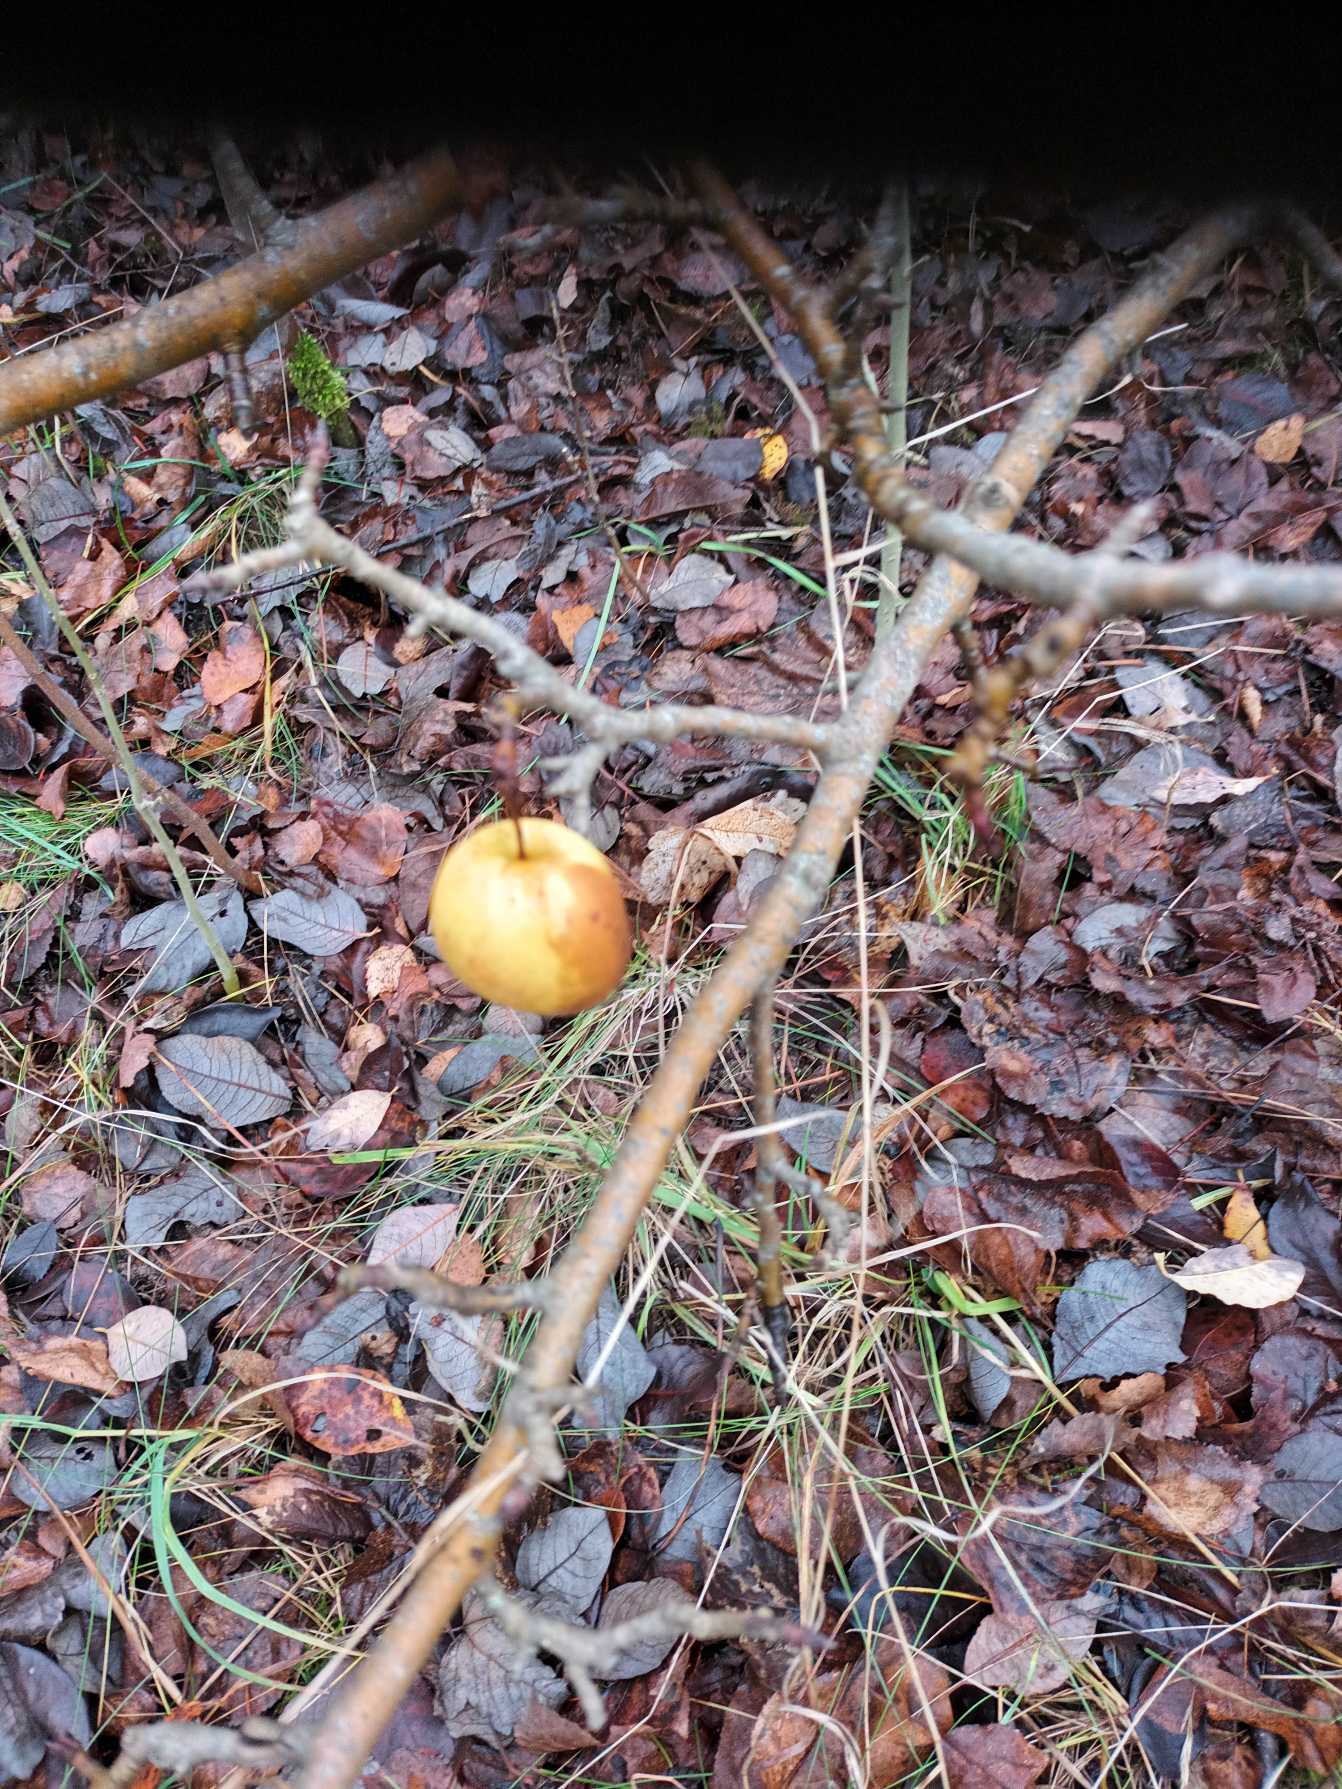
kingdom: Plantae
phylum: Tracheophyta
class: Magnoliopsida
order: Rosales
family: Rosaceae
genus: Malus
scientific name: Malus domestica
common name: Sød-æble
